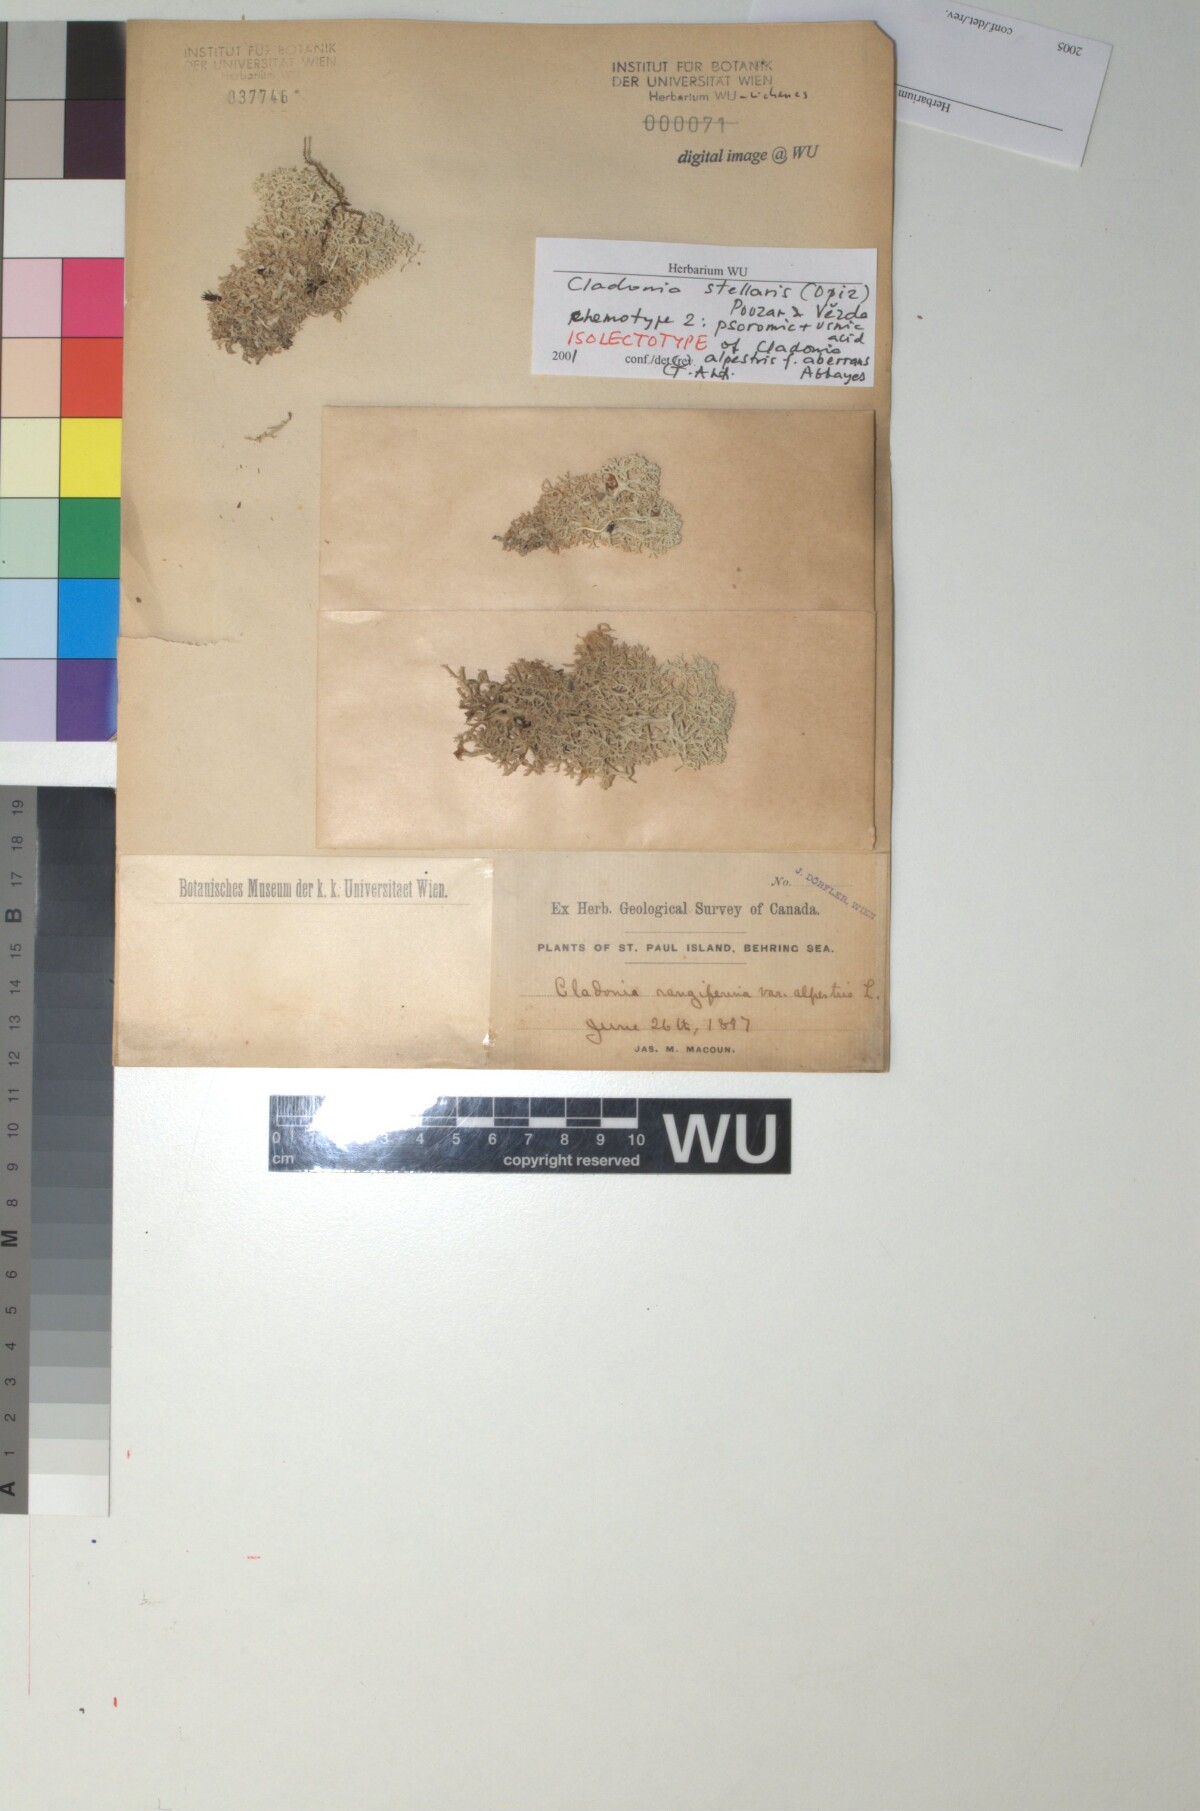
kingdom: Fungi
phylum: Ascomycota
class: Lecanoromycetes
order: Lecanorales
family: Cladoniaceae
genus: Cladonia
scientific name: Cladonia stellaris
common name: Star-tipped reindeer lichen
